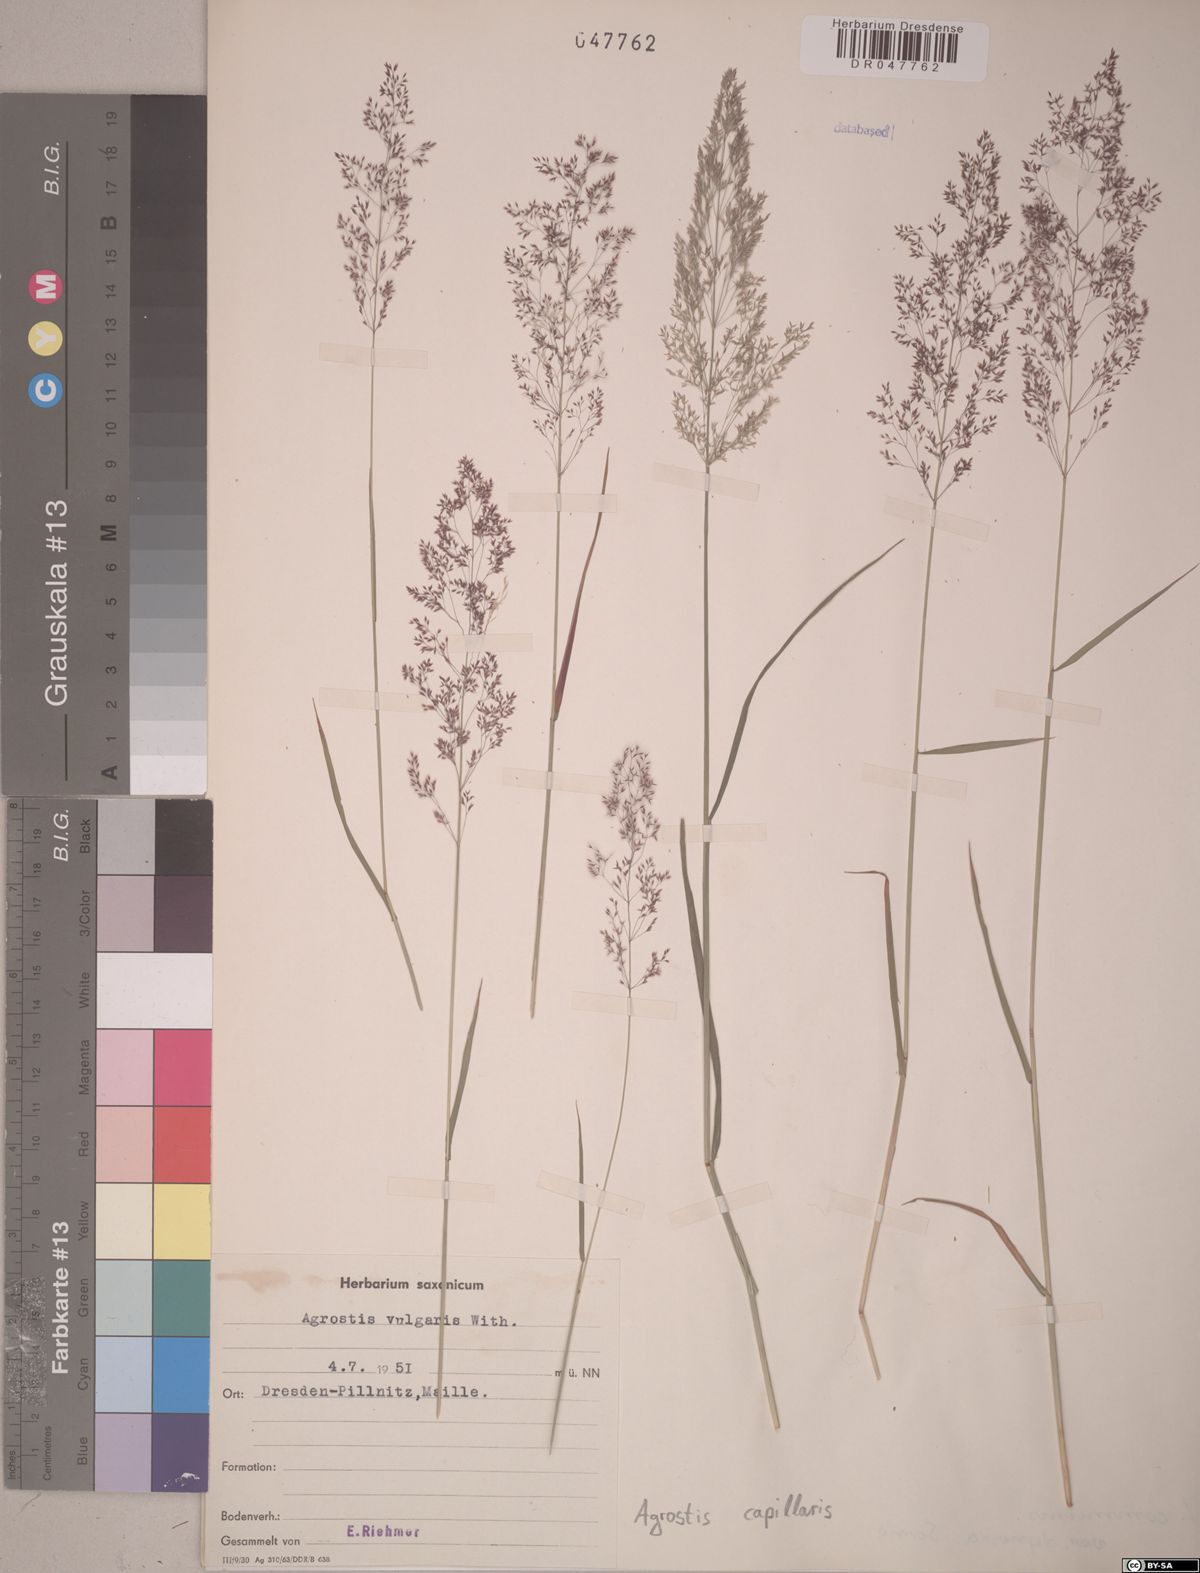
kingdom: Plantae
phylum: Tracheophyta
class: Liliopsida
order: Poales
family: Poaceae
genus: Agrostis
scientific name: Agrostis capillaris
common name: Colonial bentgrass
